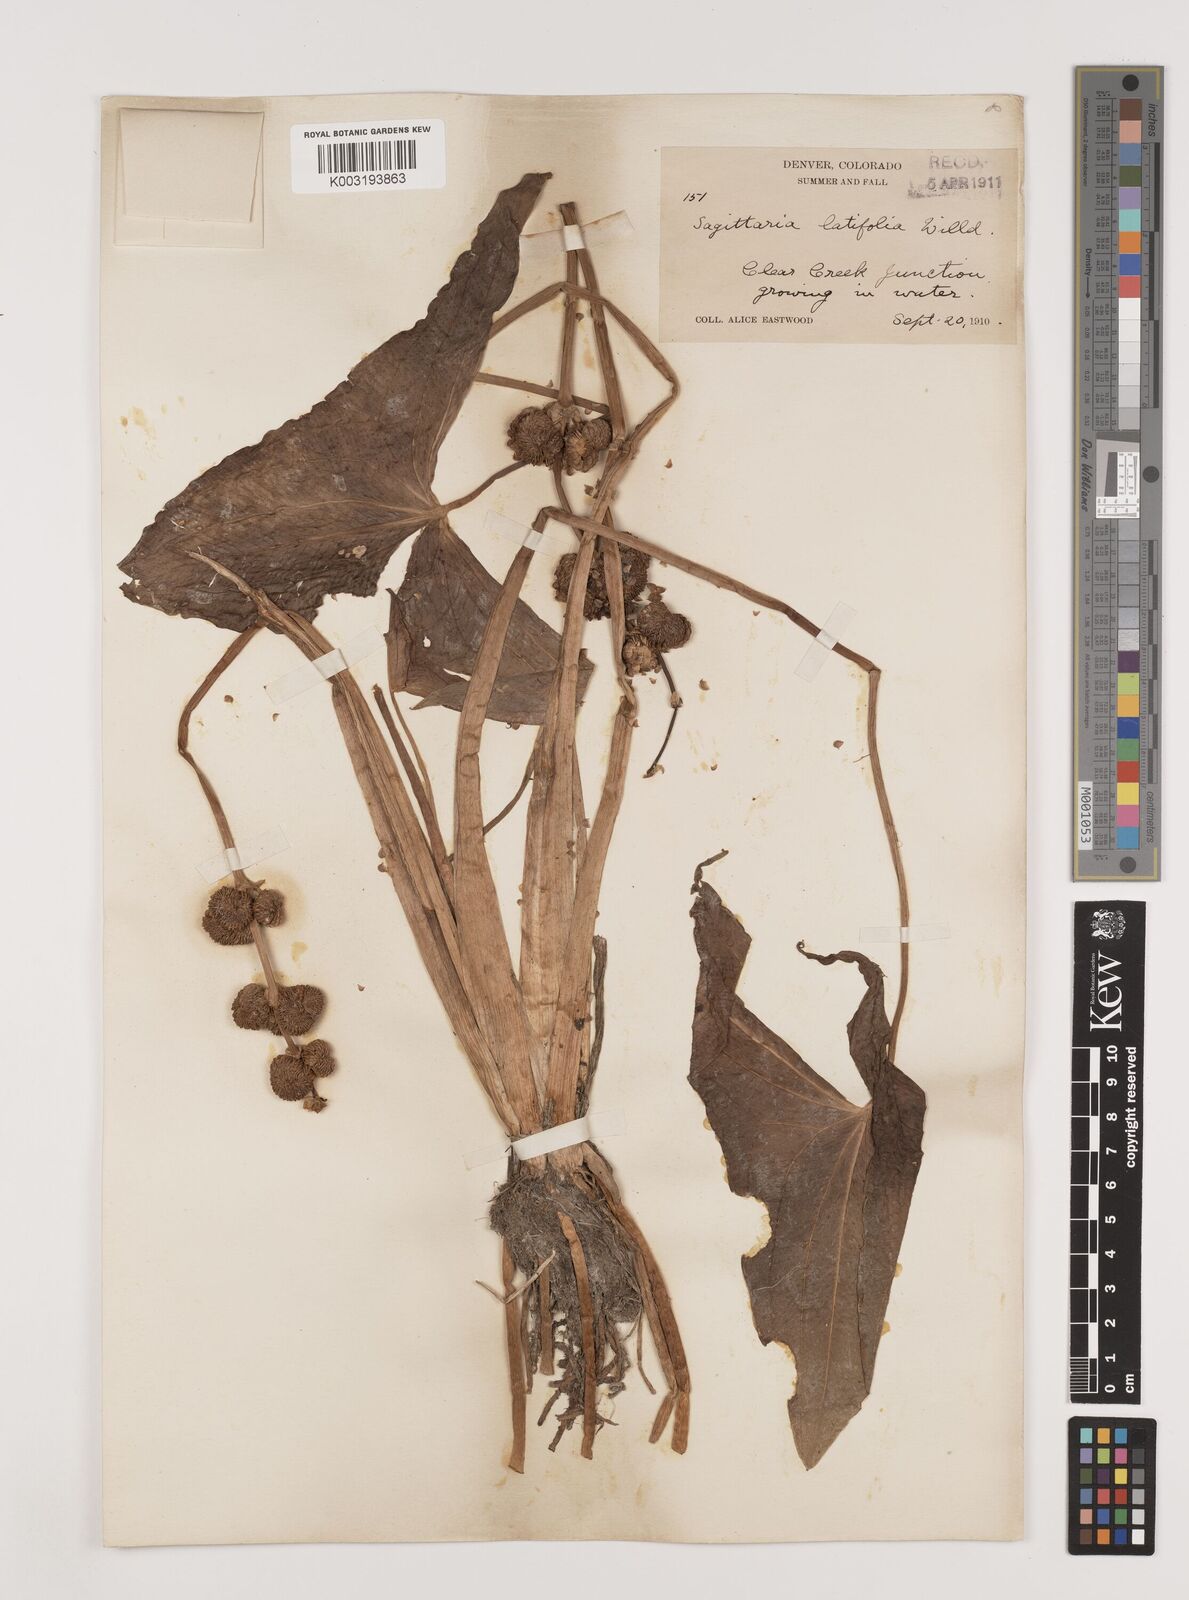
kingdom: Plantae
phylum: Tracheophyta
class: Liliopsida
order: Alismatales
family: Alismataceae
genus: Sagittaria
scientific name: Sagittaria latifolia
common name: Duck-potato
